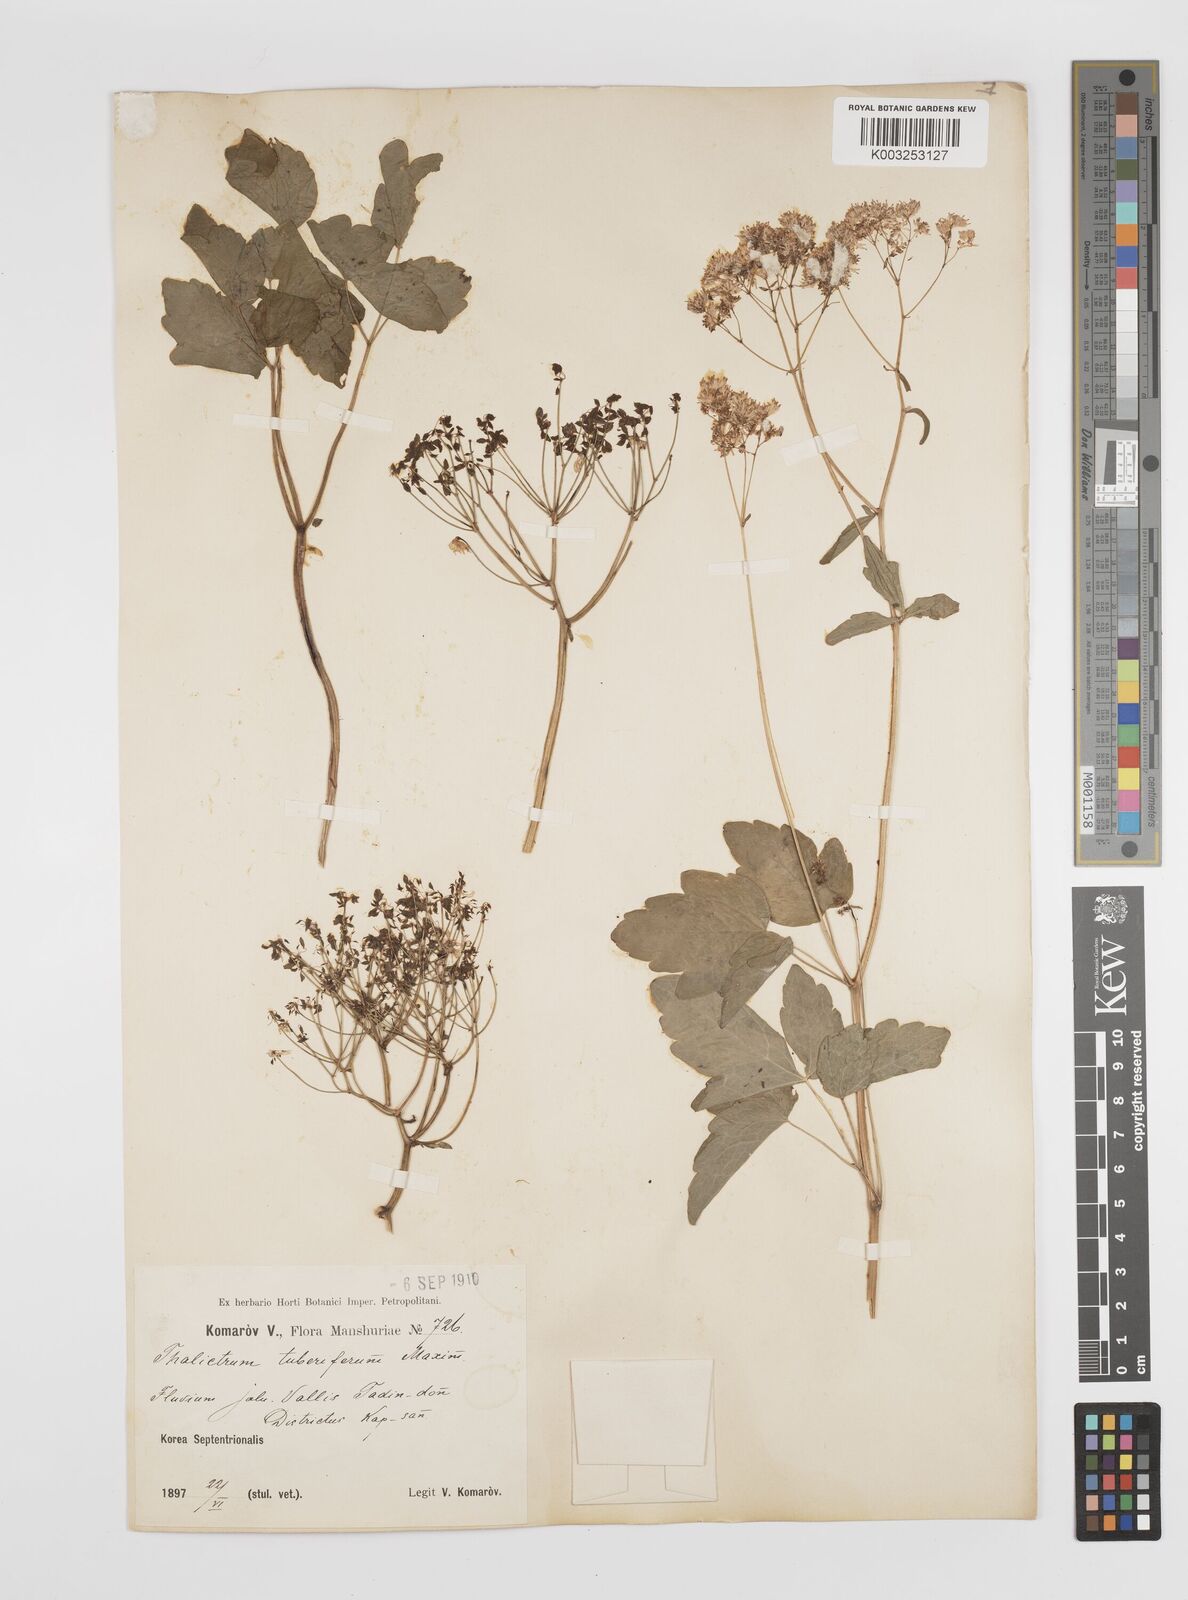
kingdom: Plantae
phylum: Tracheophyta
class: Magnoliopsida
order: Ranunculales
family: Ranunculaceae
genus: Thalictrum
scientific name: Thalictrum tuberiferum
